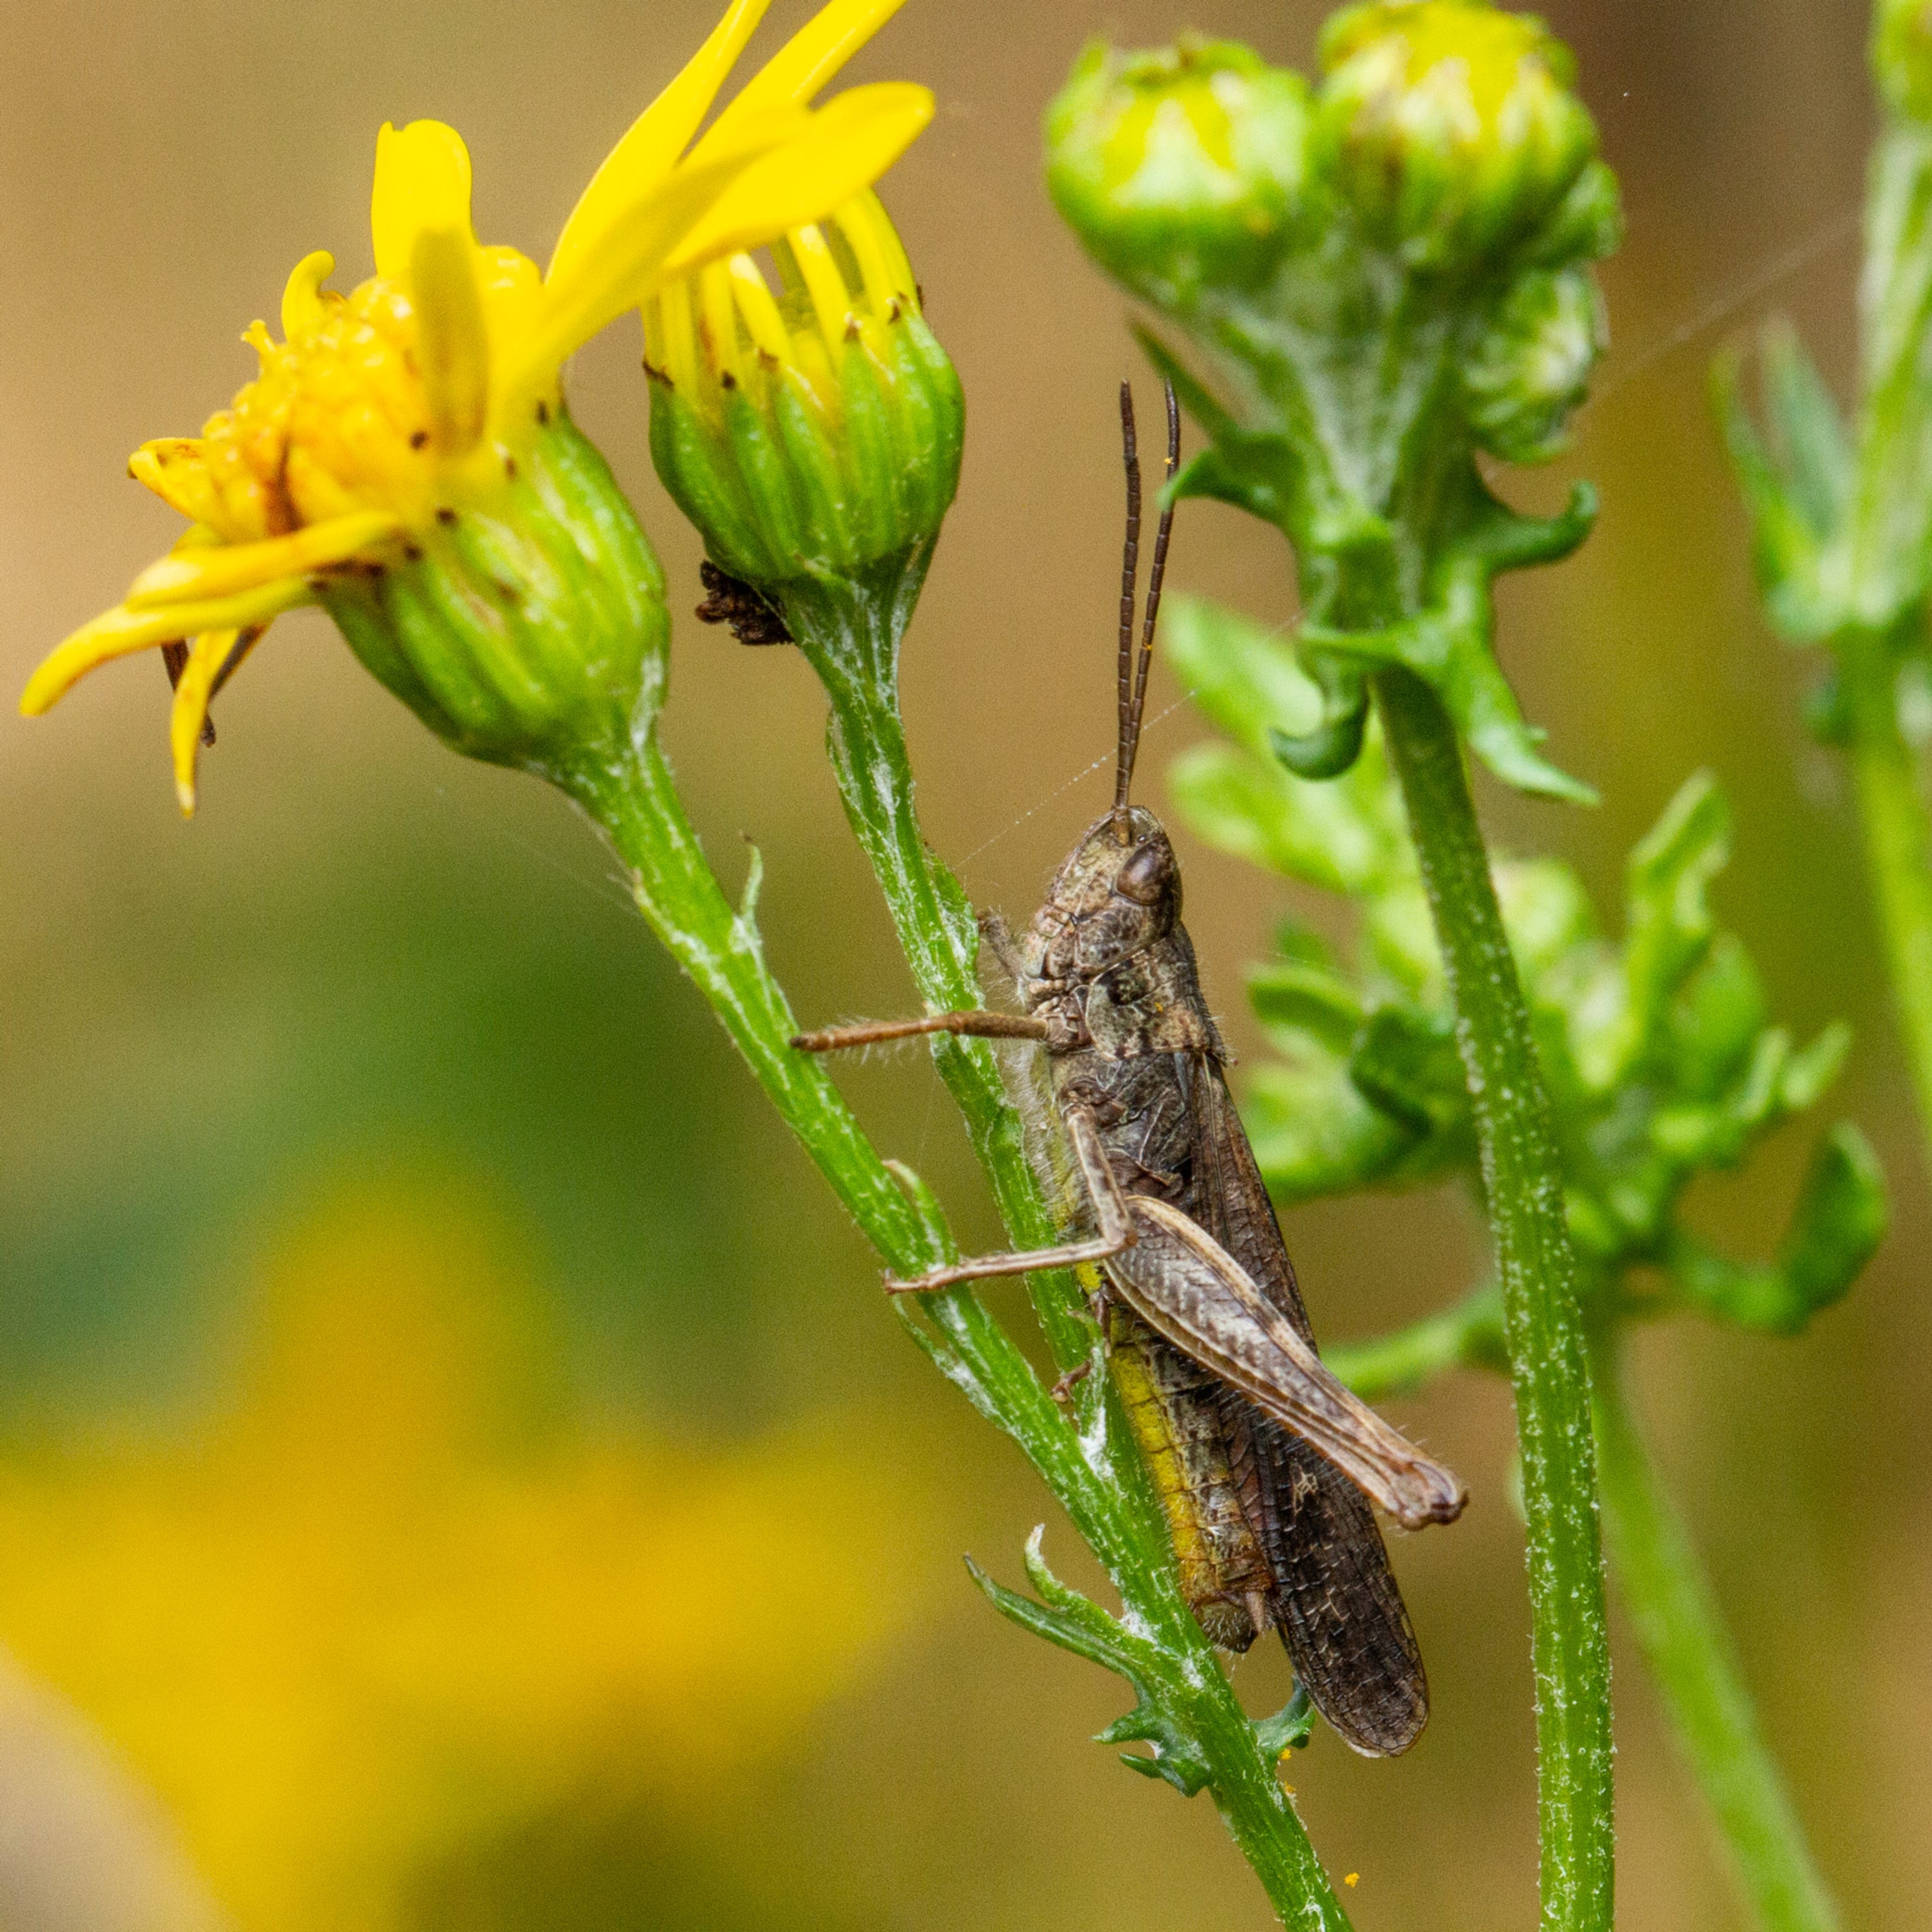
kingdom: Animalia
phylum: Arthropoda
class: Insecta
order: Orthoptera
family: Acrididae
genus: Chorthippus
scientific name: Chorthippus brunneus
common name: Almindelig markgræshoppe
